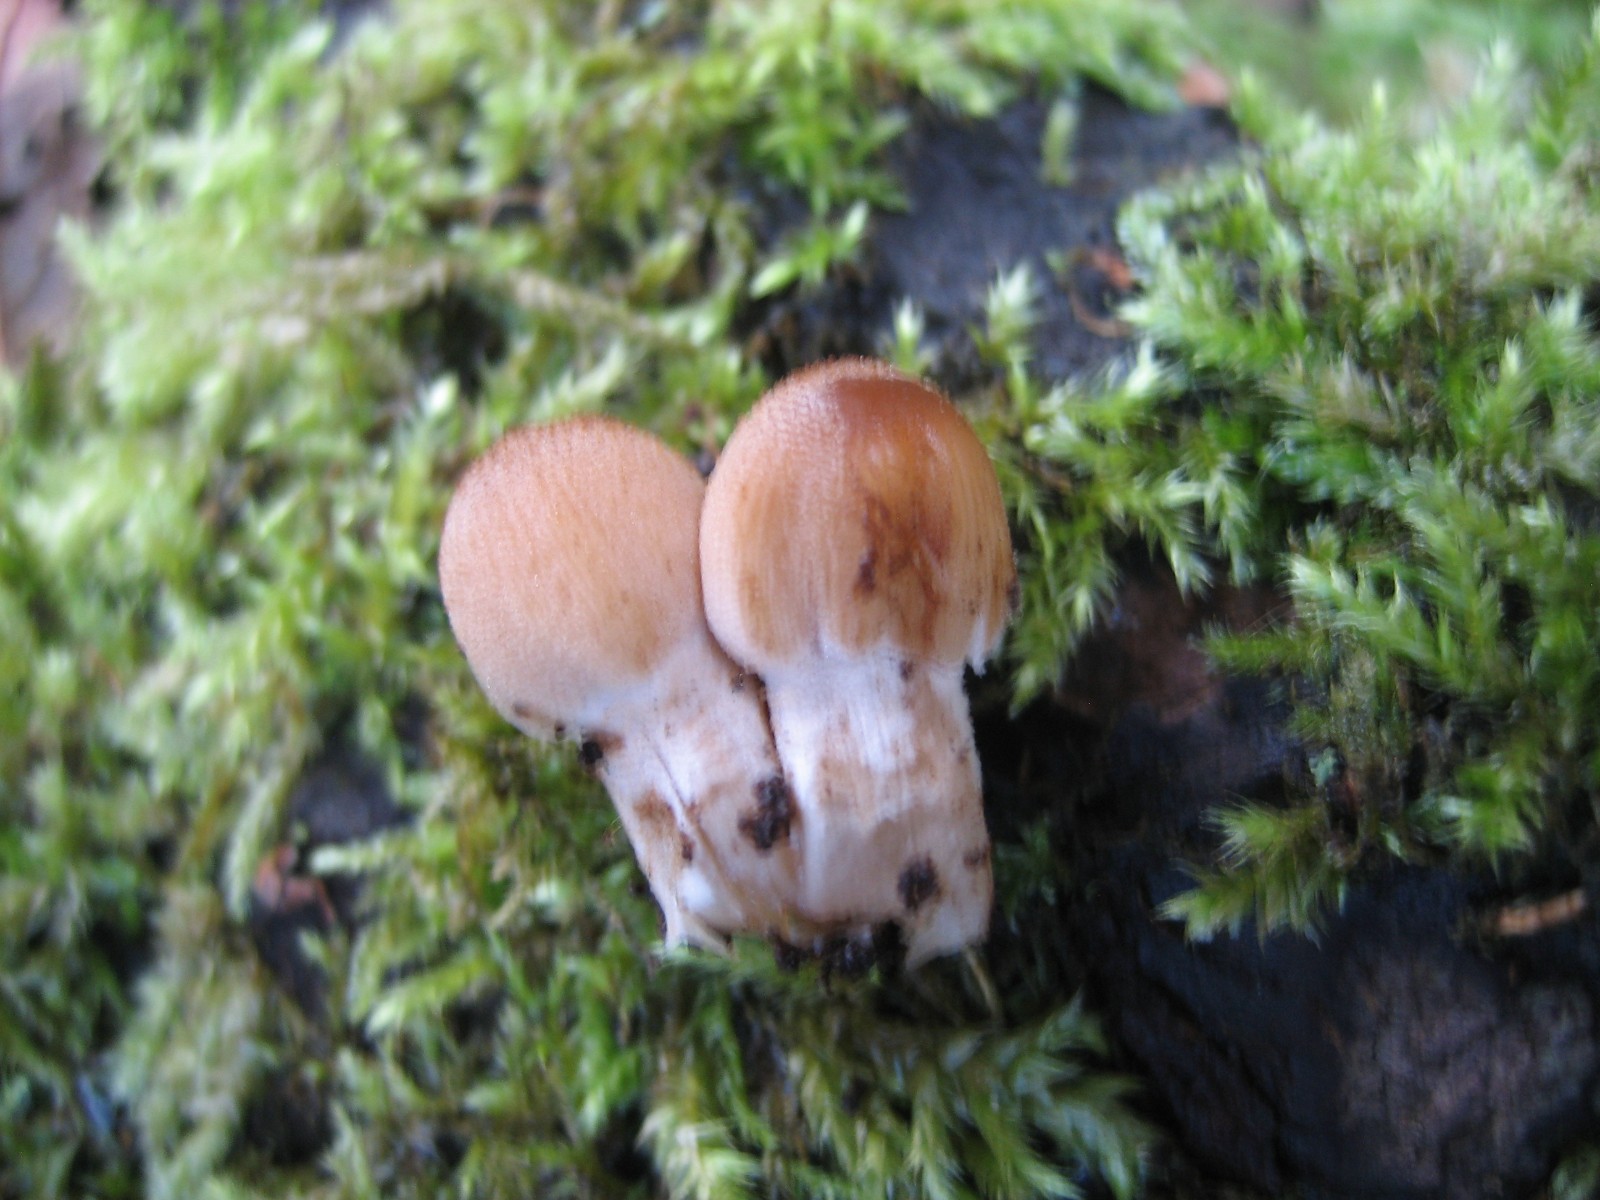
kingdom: Fungi
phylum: Basidiomycota
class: Agaricomycetes
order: Agaricales
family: Psathyrellaceae
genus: Coprinellus
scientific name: Coprinellus micaceus
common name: glimmer-blækhat
